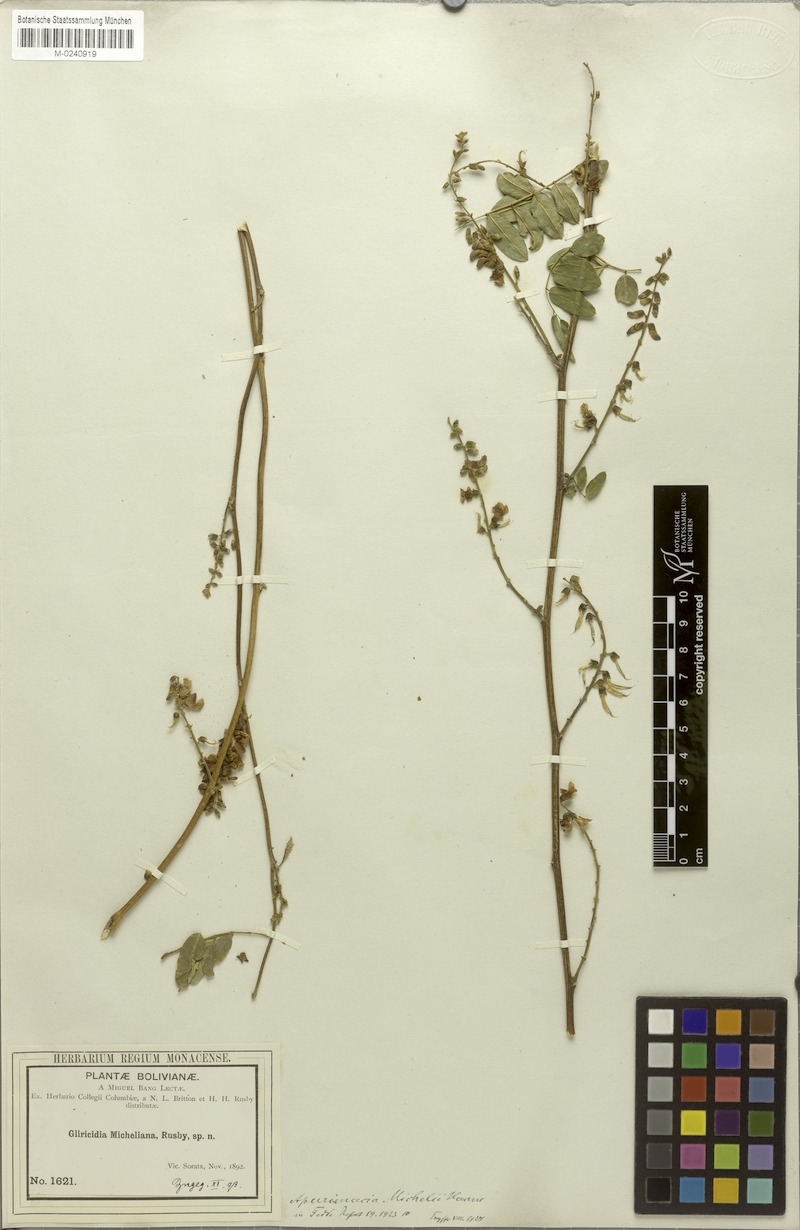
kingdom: Plantae
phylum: Tracheophyta
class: Magnoliopsida
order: Fabales
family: Fabaceae
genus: Apurimacia
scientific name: Apurimacia boliviana
